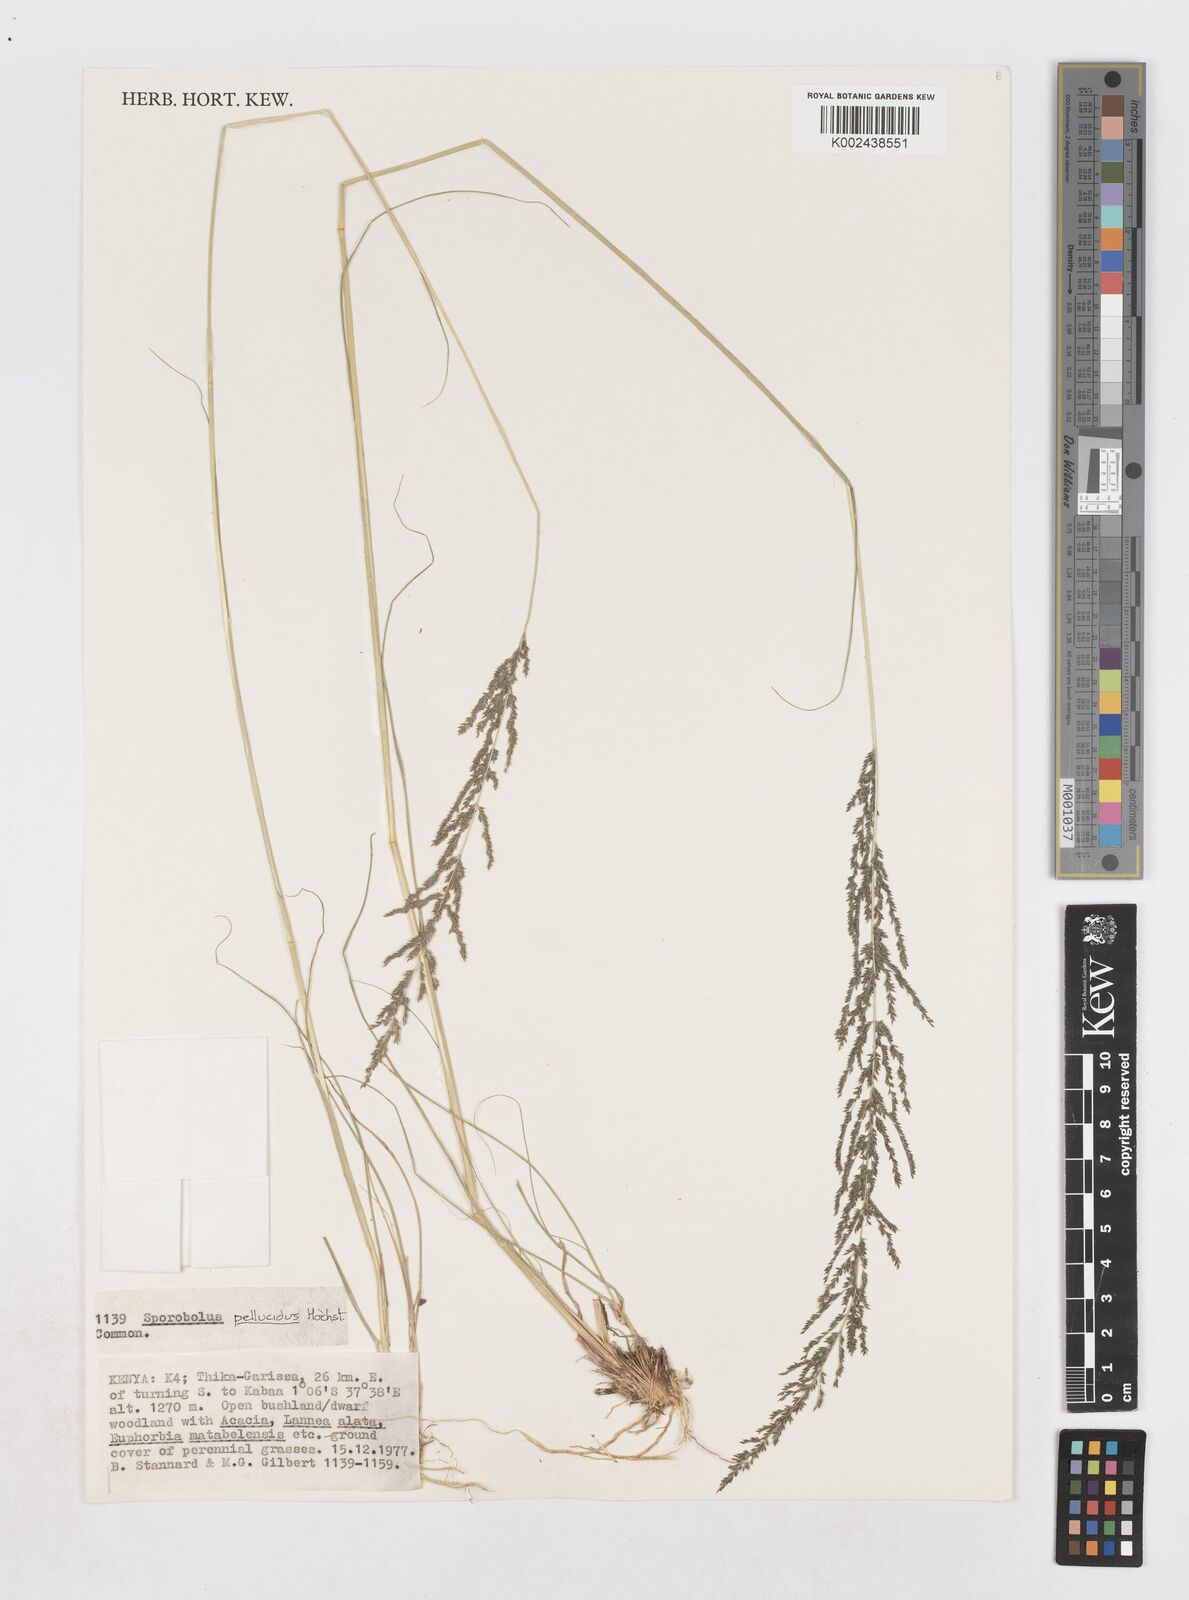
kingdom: Plantae
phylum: Tracheophyta
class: Liliopsida
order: Poales
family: Poaceae
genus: Sporobolus
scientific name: Sporobolus pellucidus
